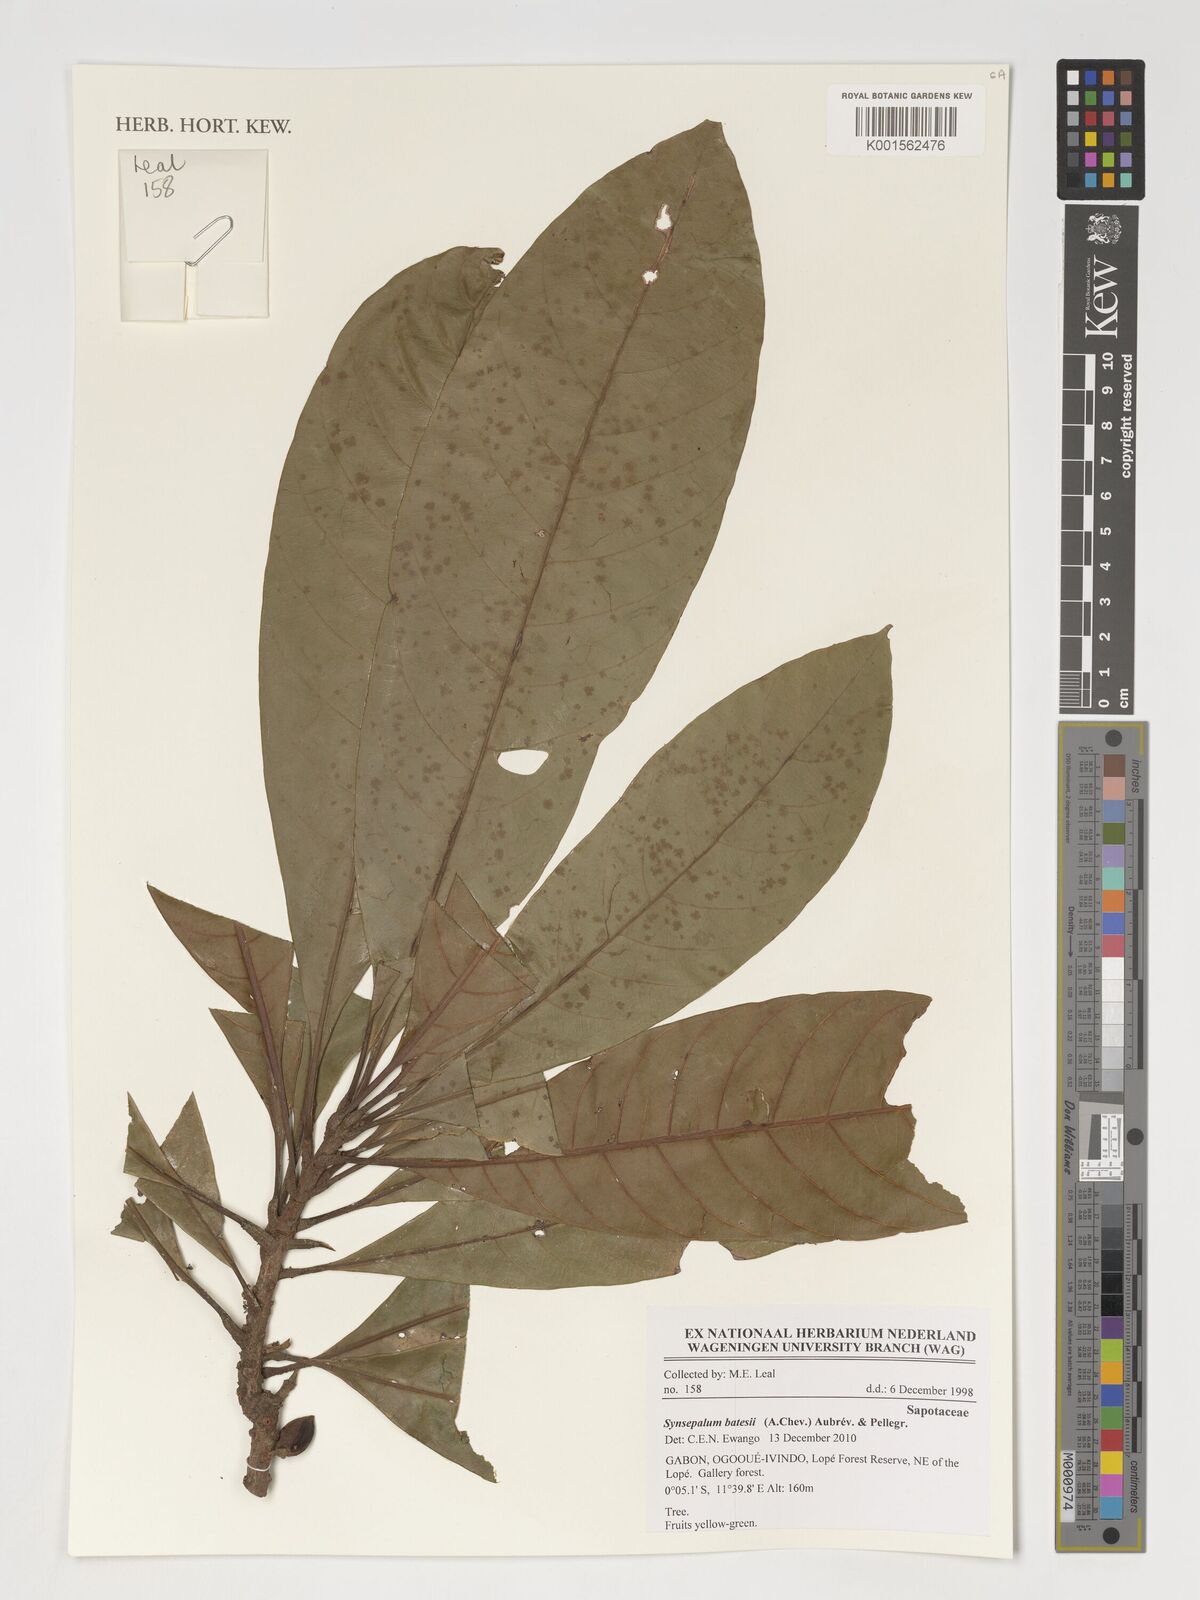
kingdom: Plantae
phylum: Tracheophyta
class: Magnoliopsida
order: Ericales
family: Sapotaceae
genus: Synsepalum
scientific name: Synsepalum batesii
